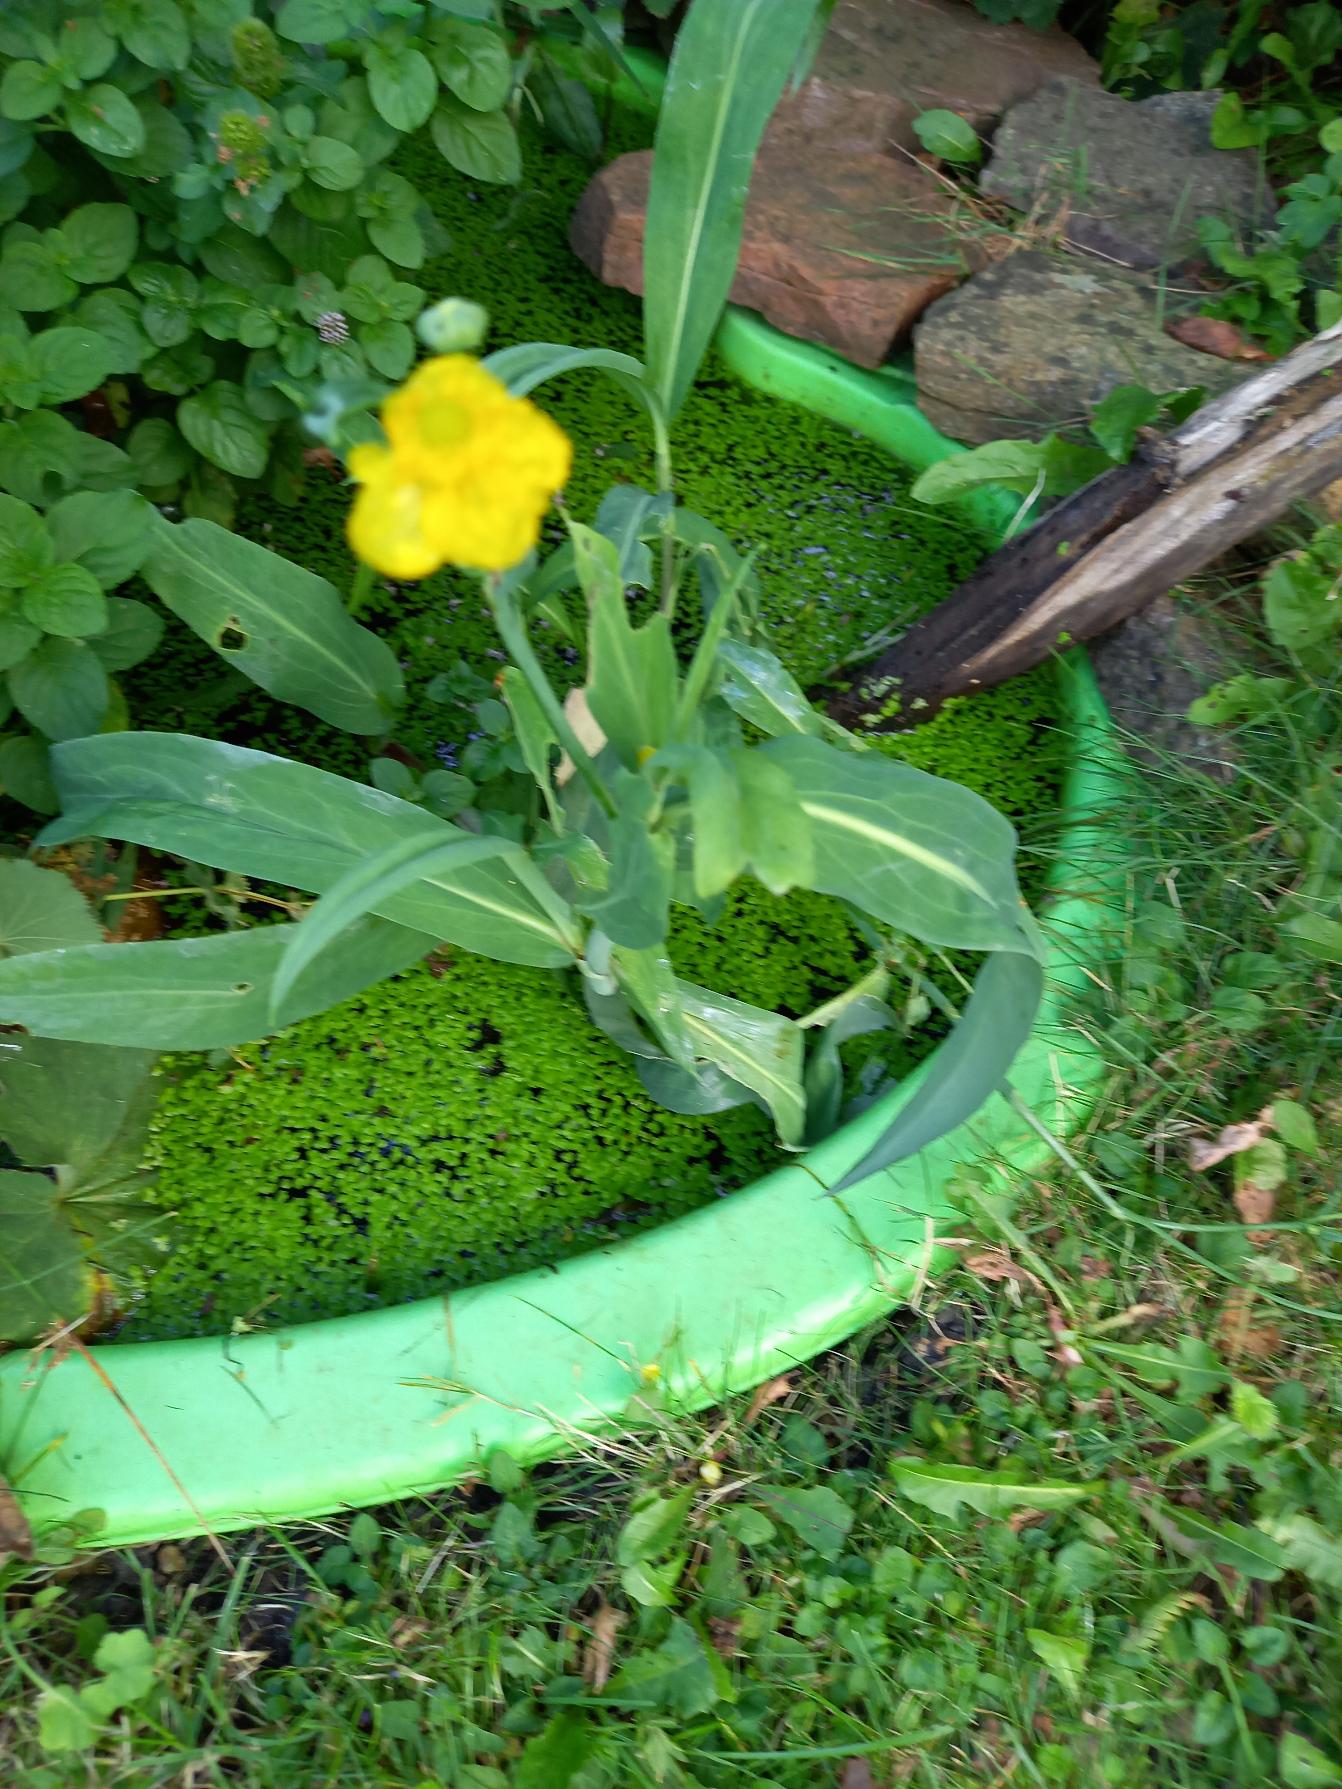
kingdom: Plantae
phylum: Tracheophyta
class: Magnoliopsida
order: Ranunculales
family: Ranunculaceae
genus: Ranunculus
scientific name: Ranunculus lingua
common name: Langbladet ranunkel
